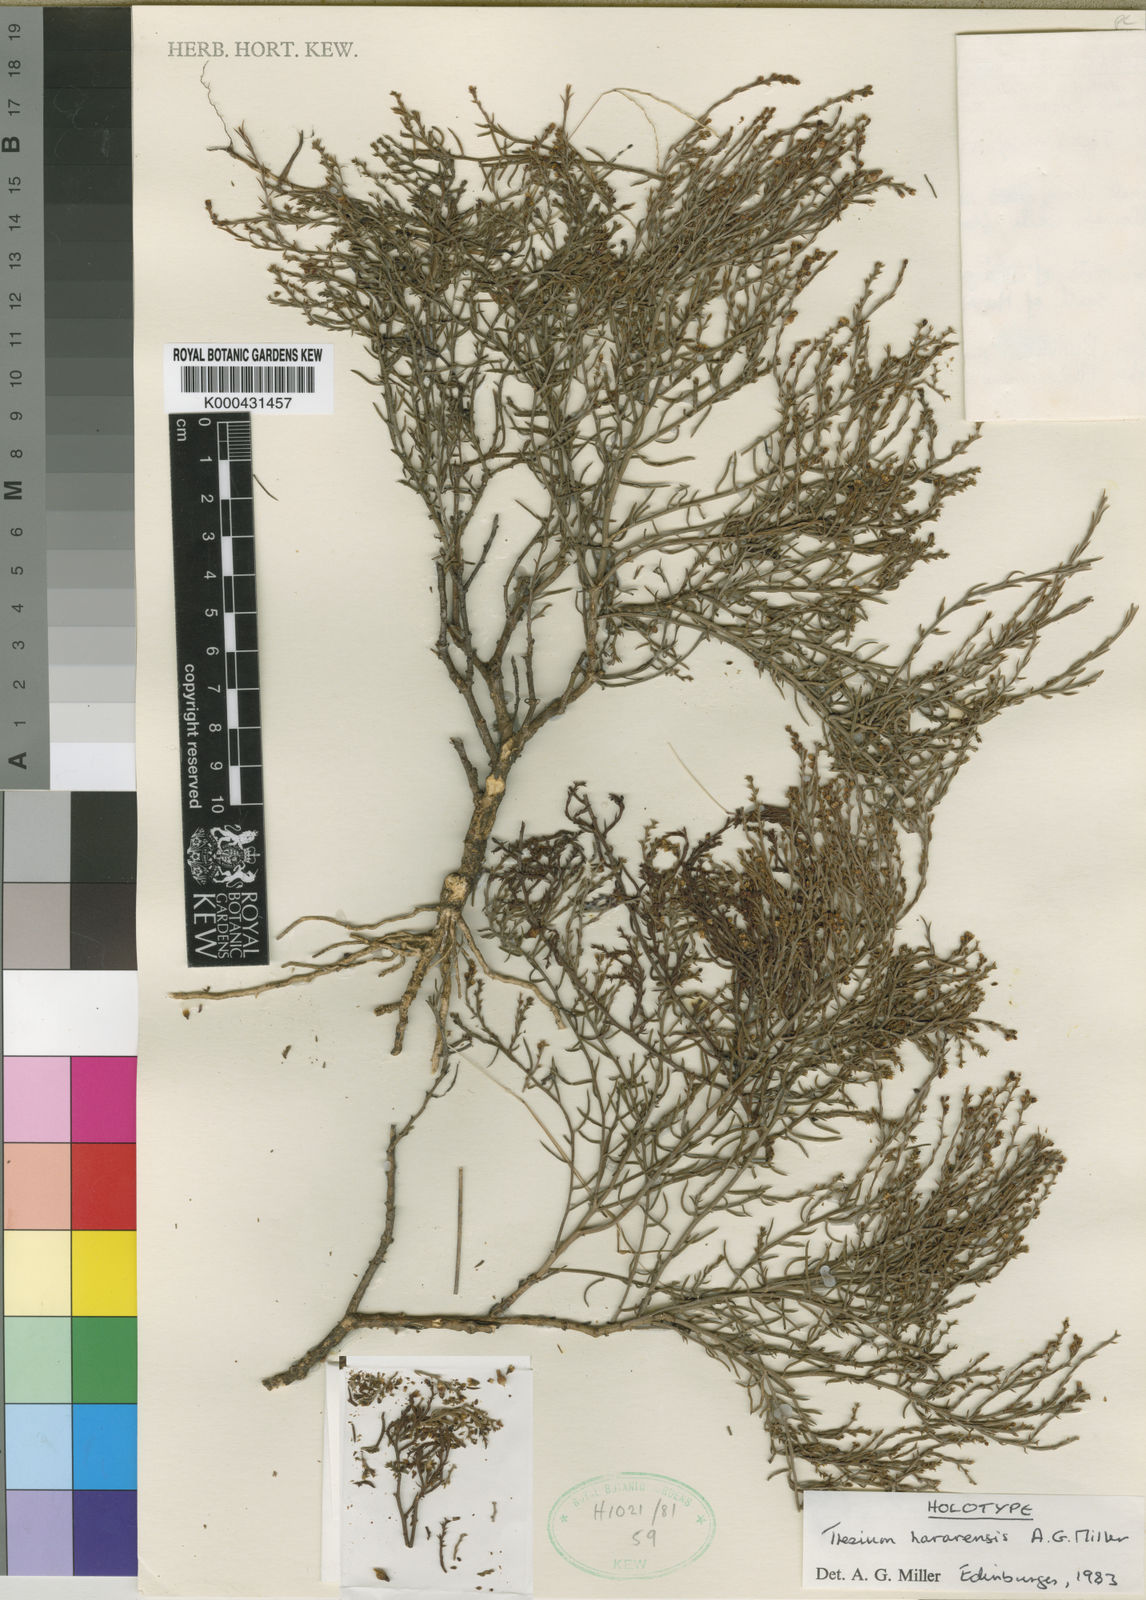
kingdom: Plantae
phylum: Tracheophyta
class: Magnoliopsida
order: Santalales
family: Thesiaceae
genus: Thesium
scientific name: Thesium hararensis
